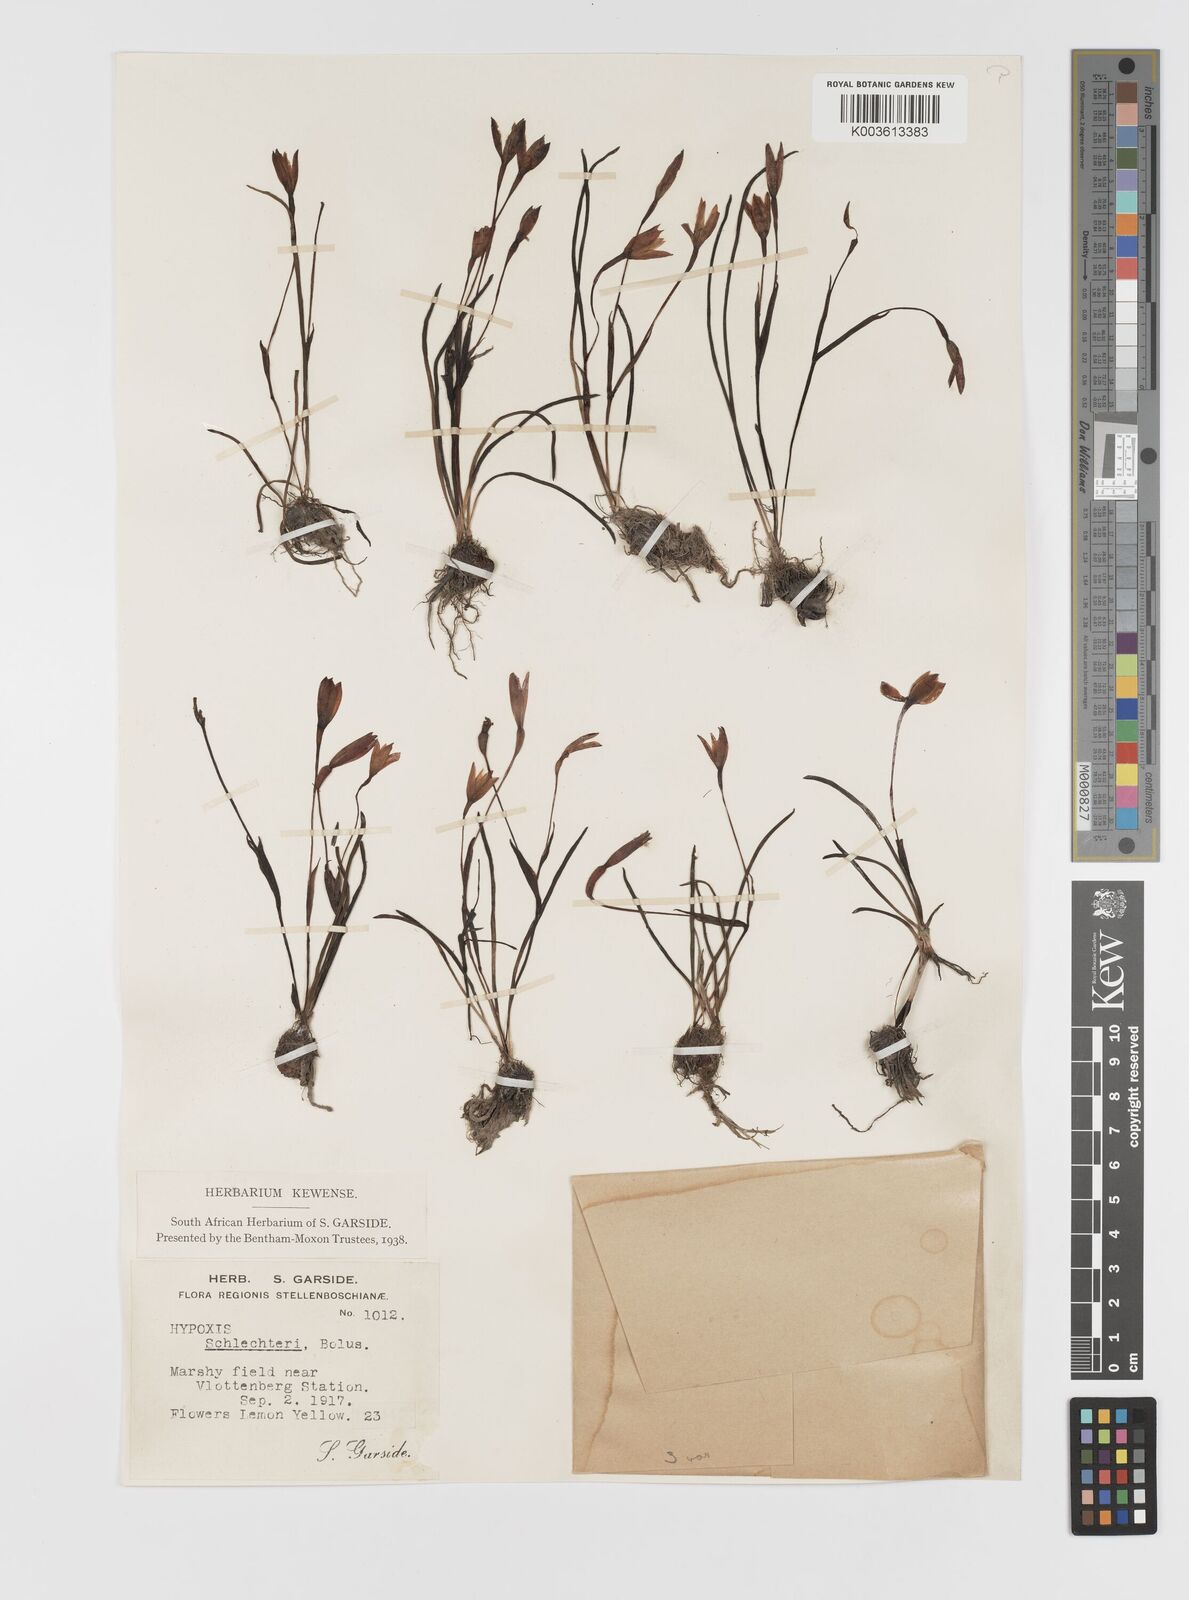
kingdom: Plantae
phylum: Tracheophyta
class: Liliopsida
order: Asparagales
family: Hypoxidaceae
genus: Pauridia
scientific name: Pauridia affinis
